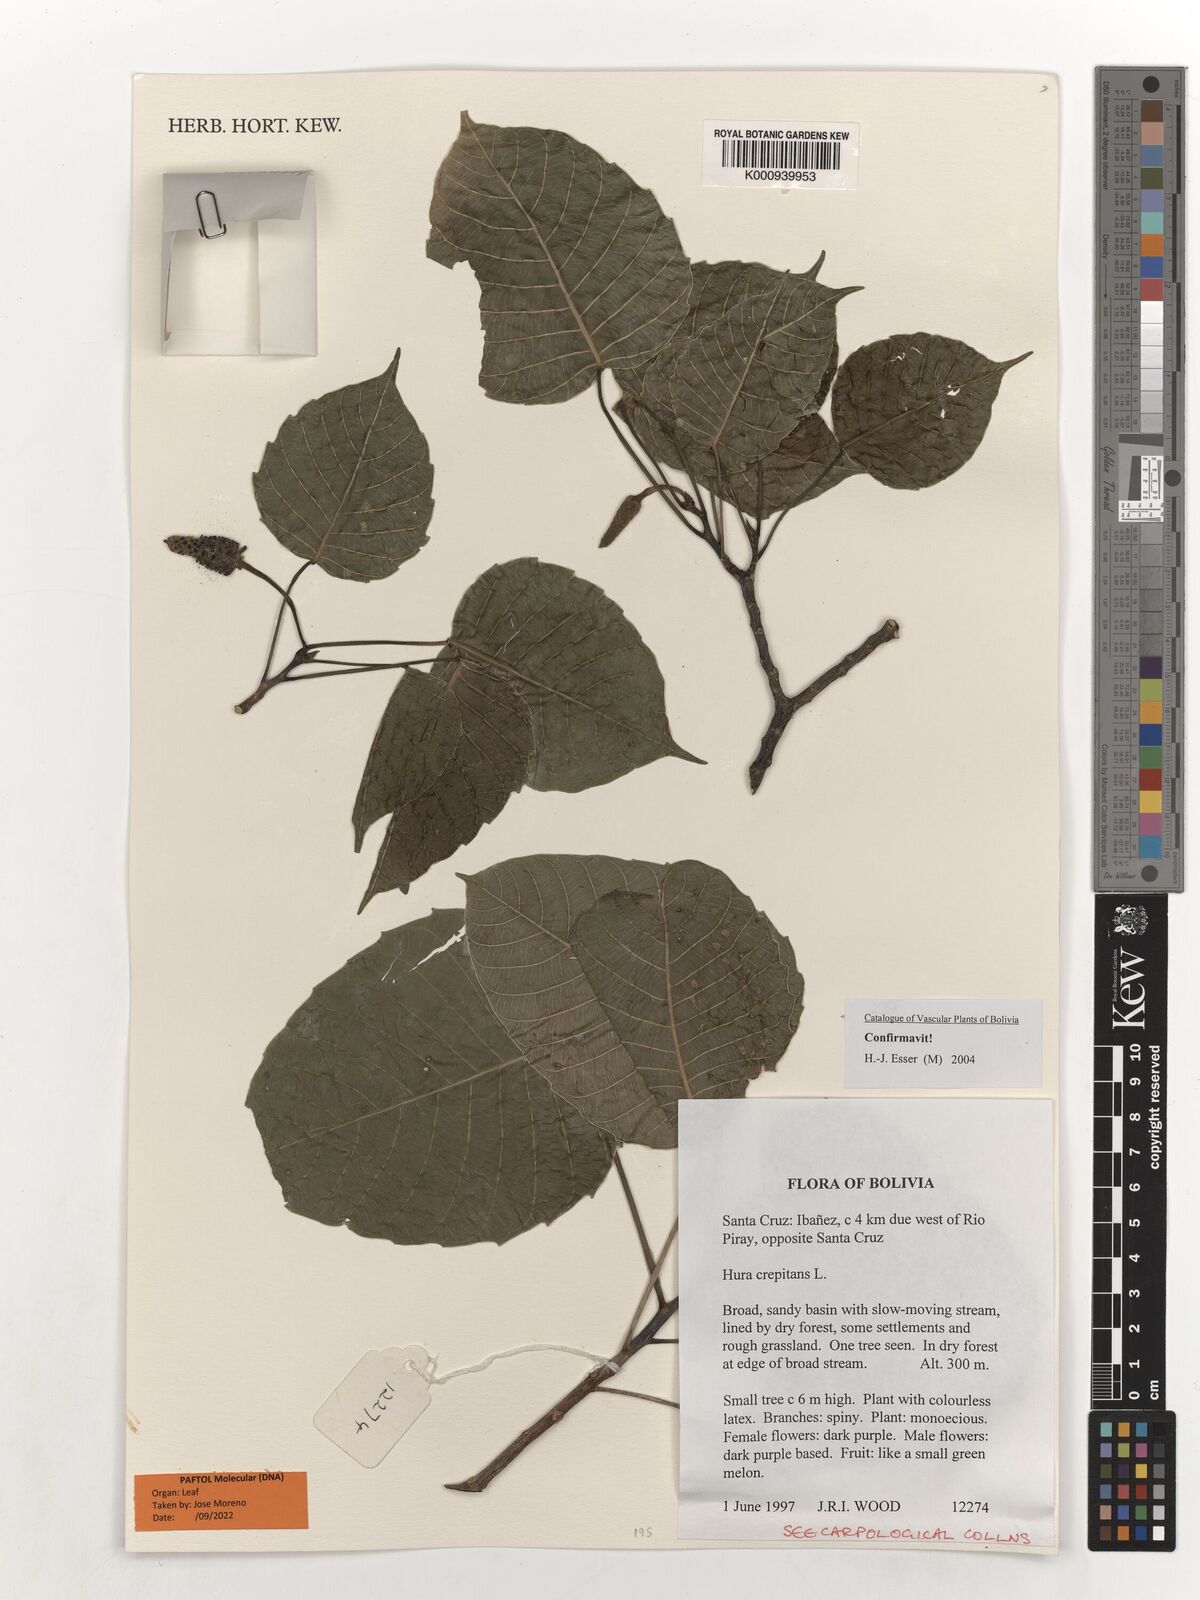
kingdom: Plantae
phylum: Tracheophyta
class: Magnoliopsida
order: Malpighiales
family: Euphorbiaceae
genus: Hura
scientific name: Hura crepitans
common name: Sandboxtree
